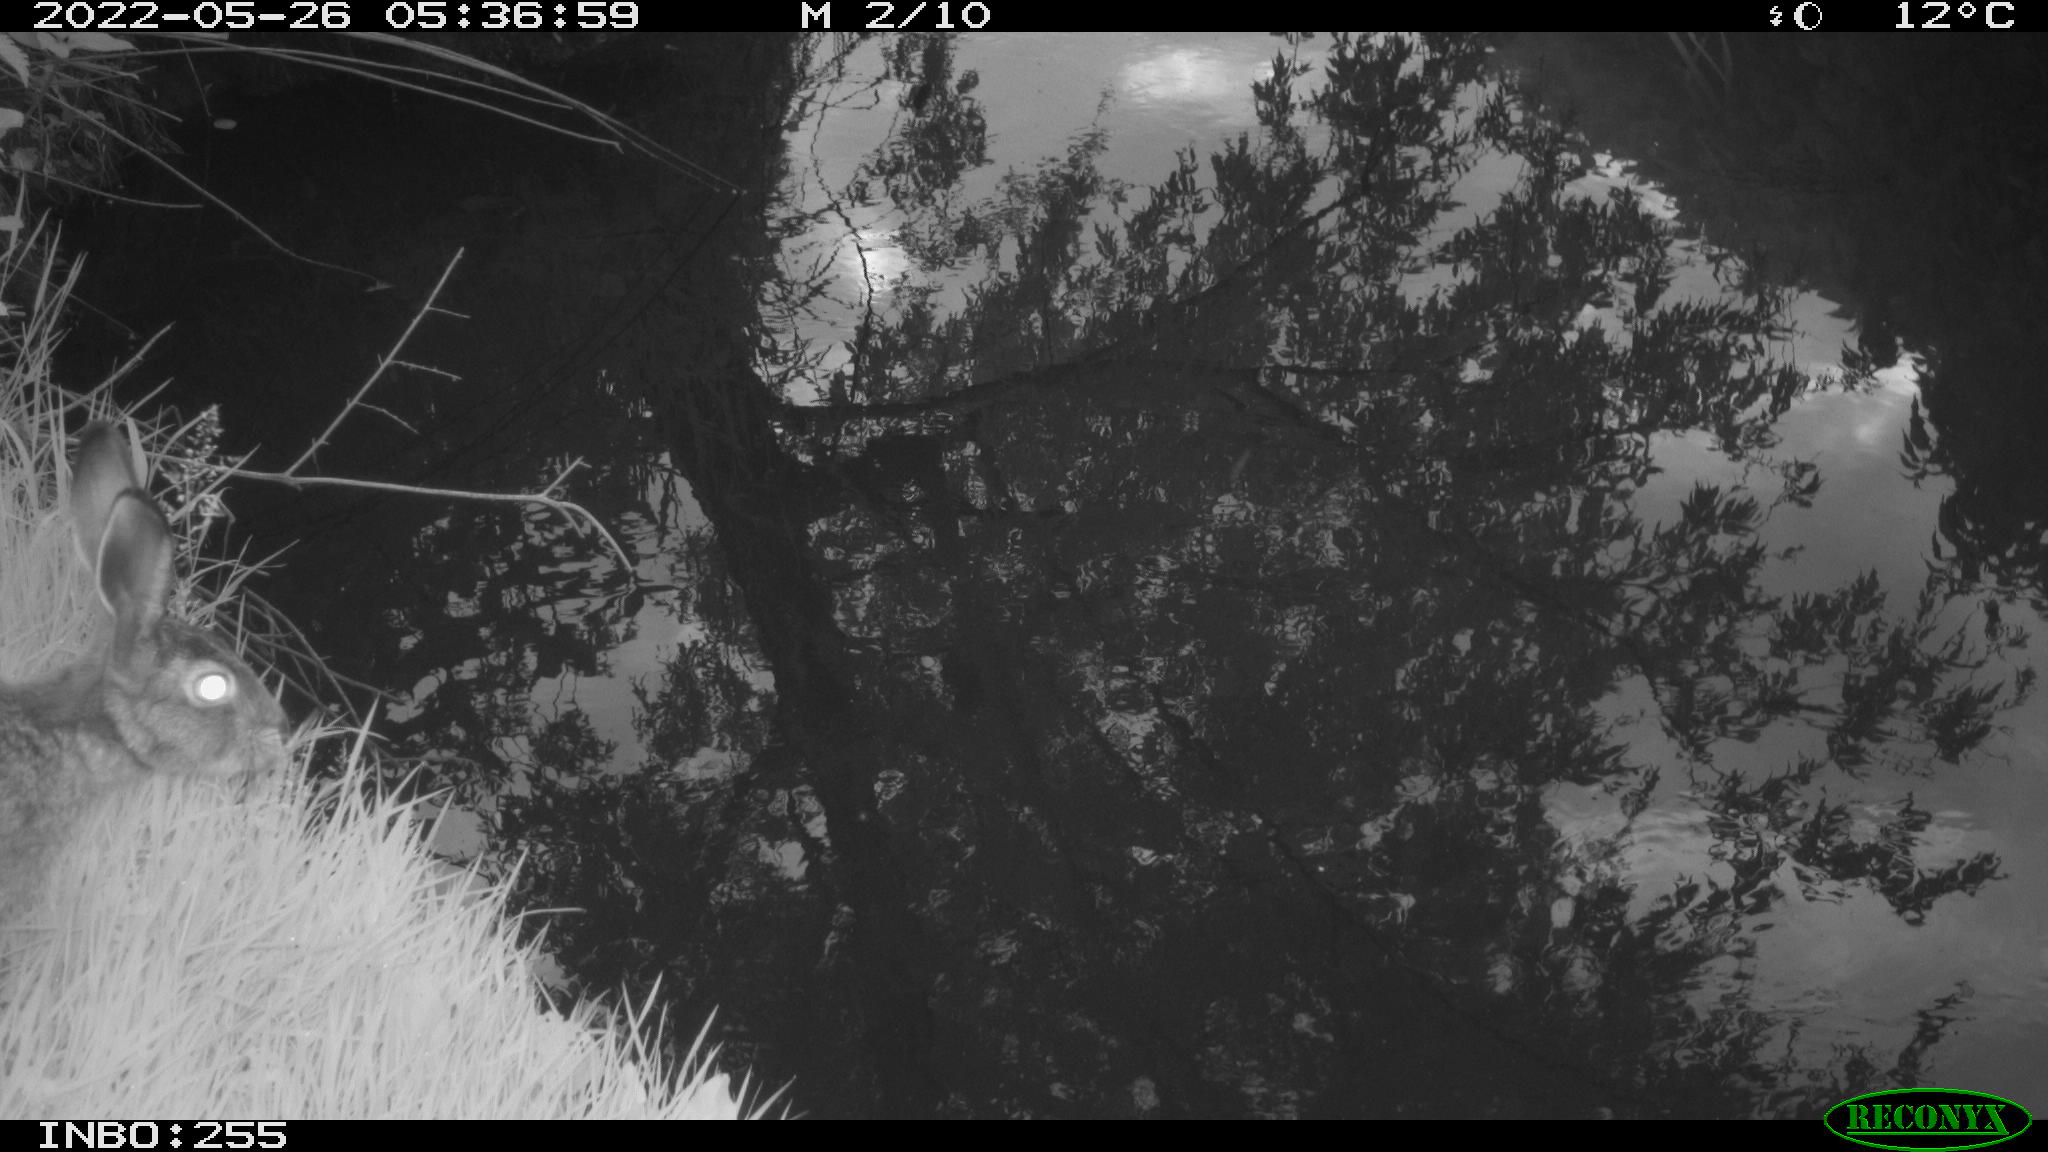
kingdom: Animalia
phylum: Chordata
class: Mammalia
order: Lagomorpha
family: Leporidae
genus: Lepus
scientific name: Lepus europaeus
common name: European hare
